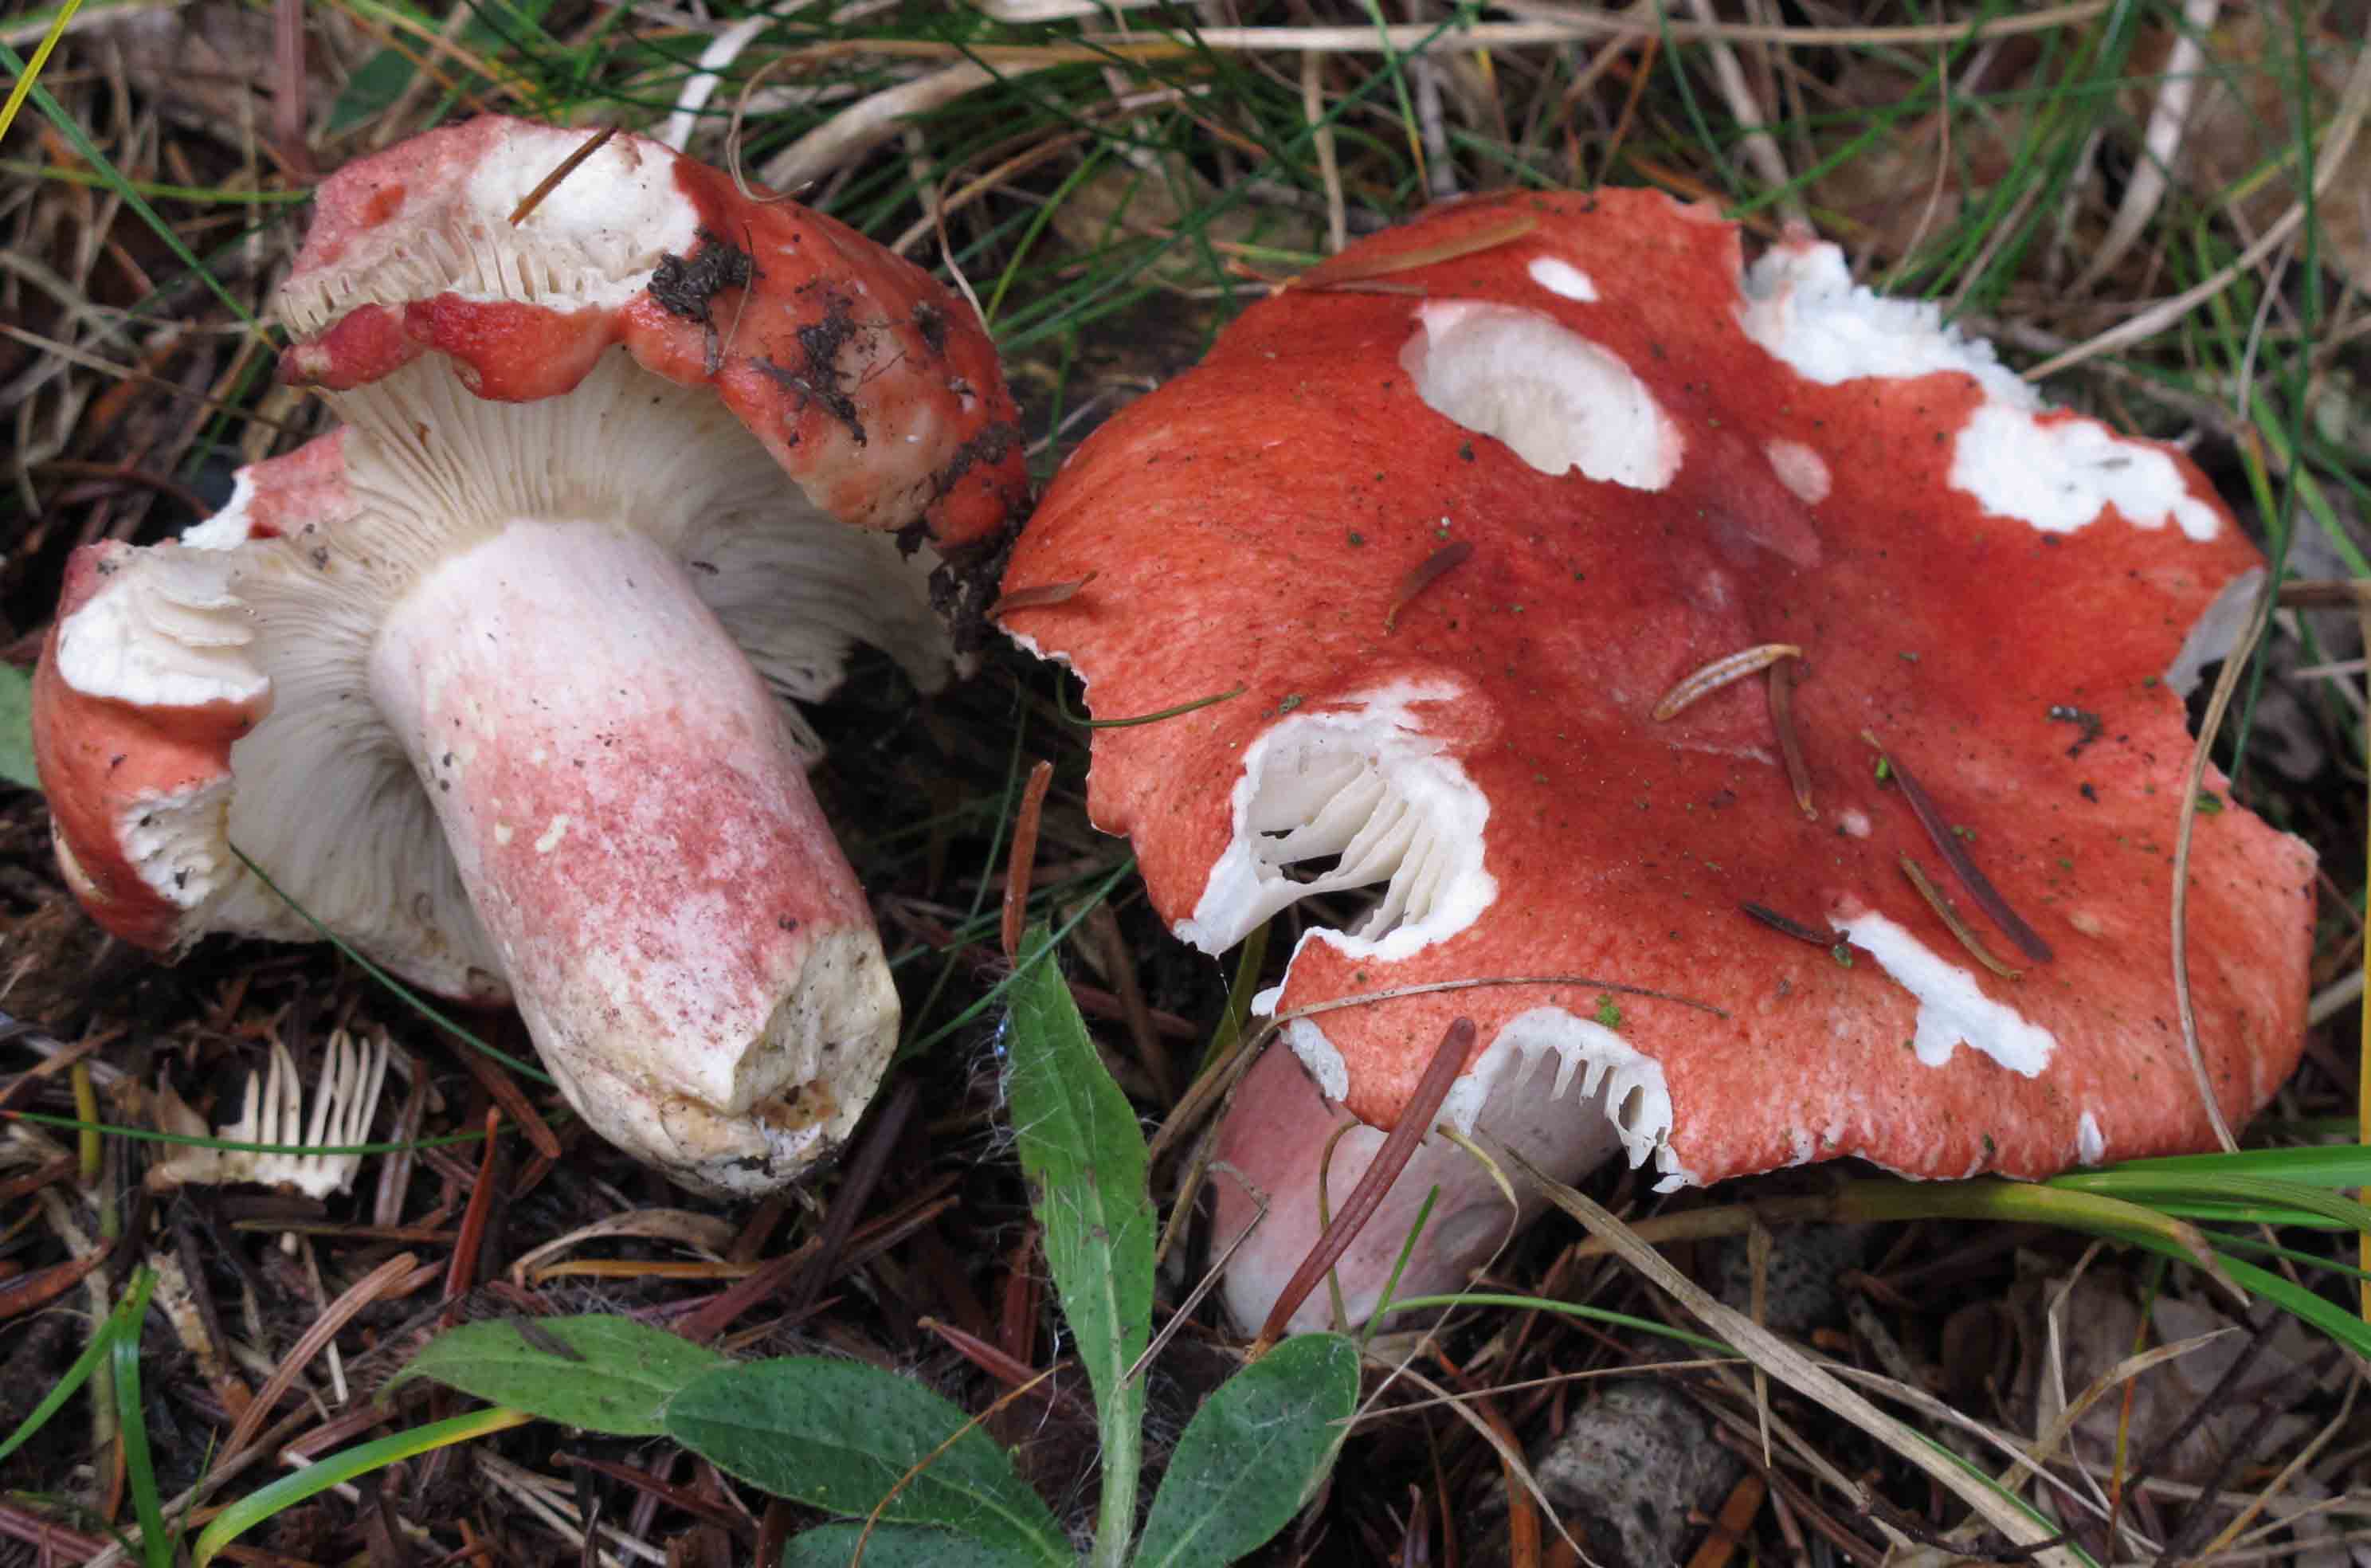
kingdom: Fungi
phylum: Basidiomycota
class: Agaricomycetes
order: Russulales
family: Russulaceae
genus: Russula
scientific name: Russula sanguinea
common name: blodrød skørhat
